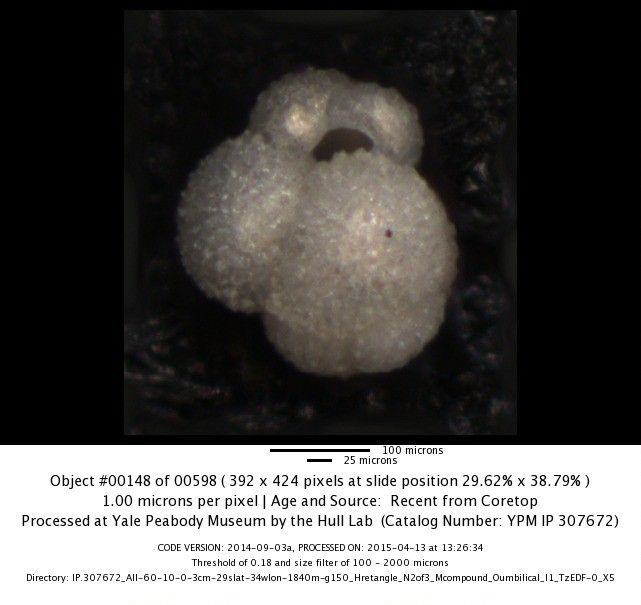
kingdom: Chromista
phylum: Foraminifera
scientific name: Foraminifera
